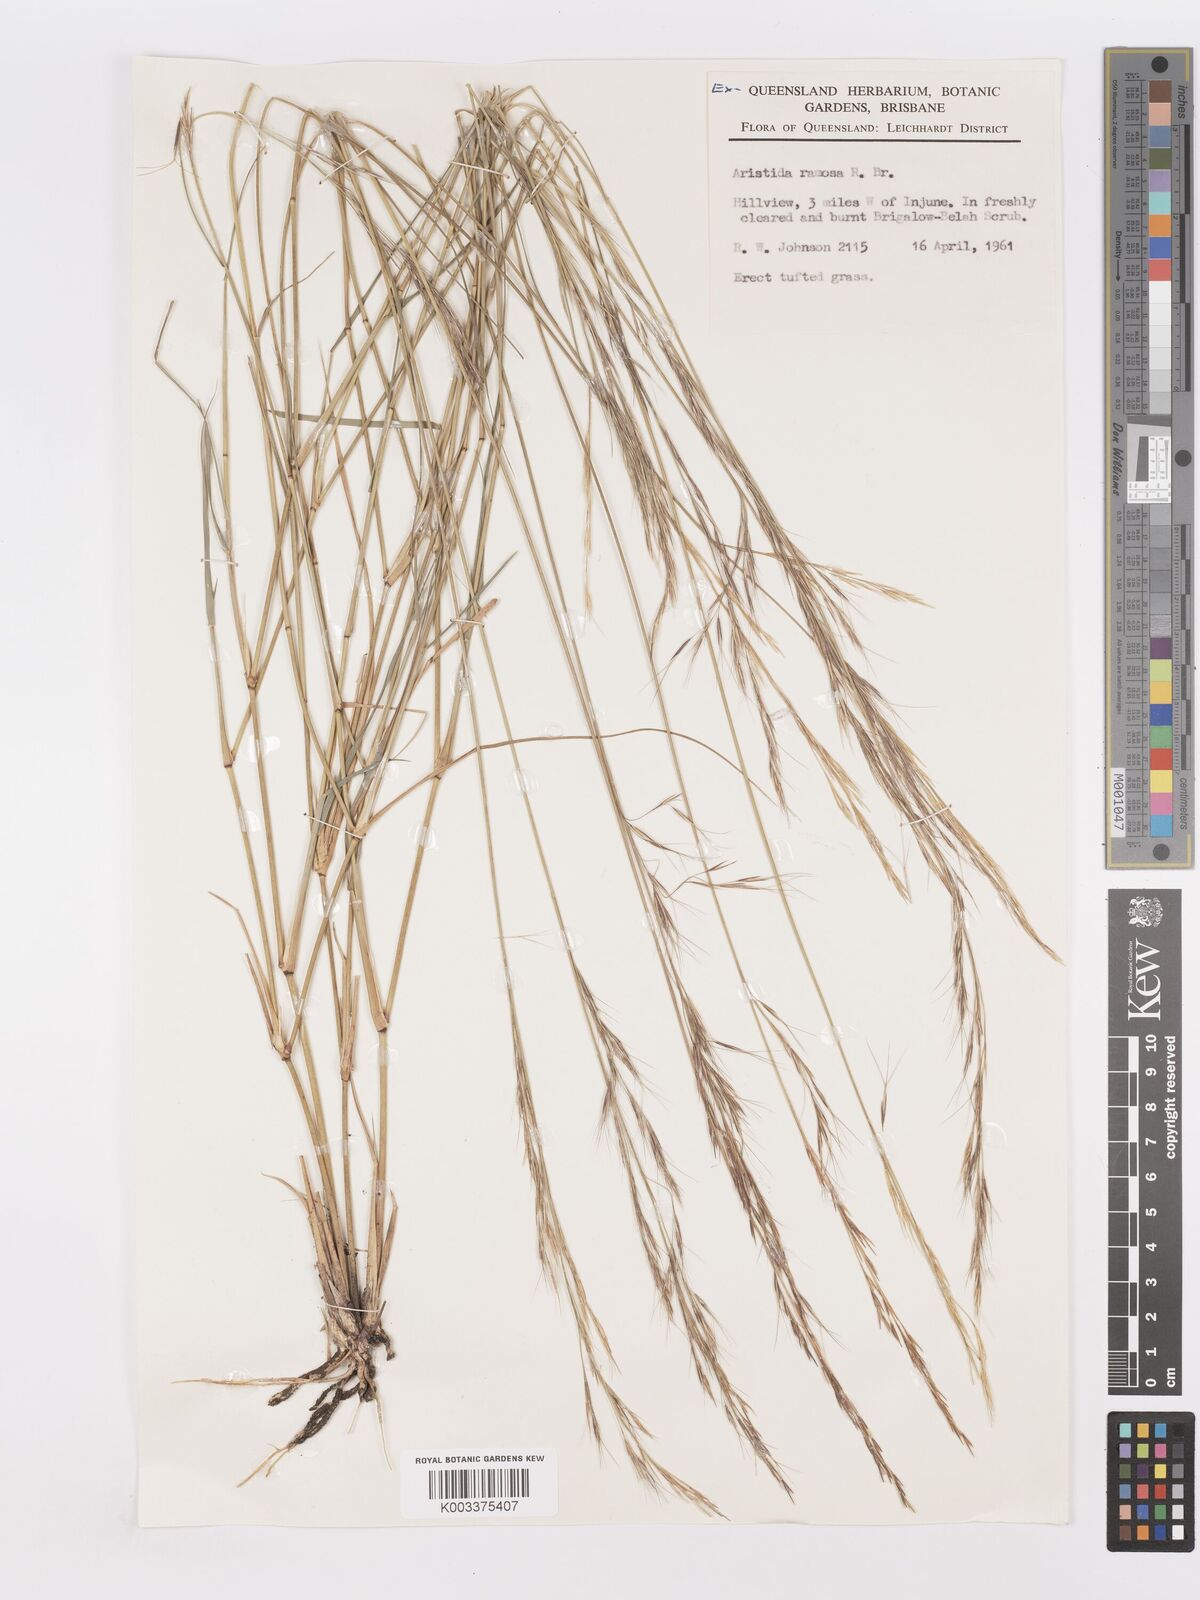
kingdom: Plantae
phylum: Tracheophyta
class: Liliopsida
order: Poales
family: Poaceae
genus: Aristida
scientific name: Aristida ramosa
